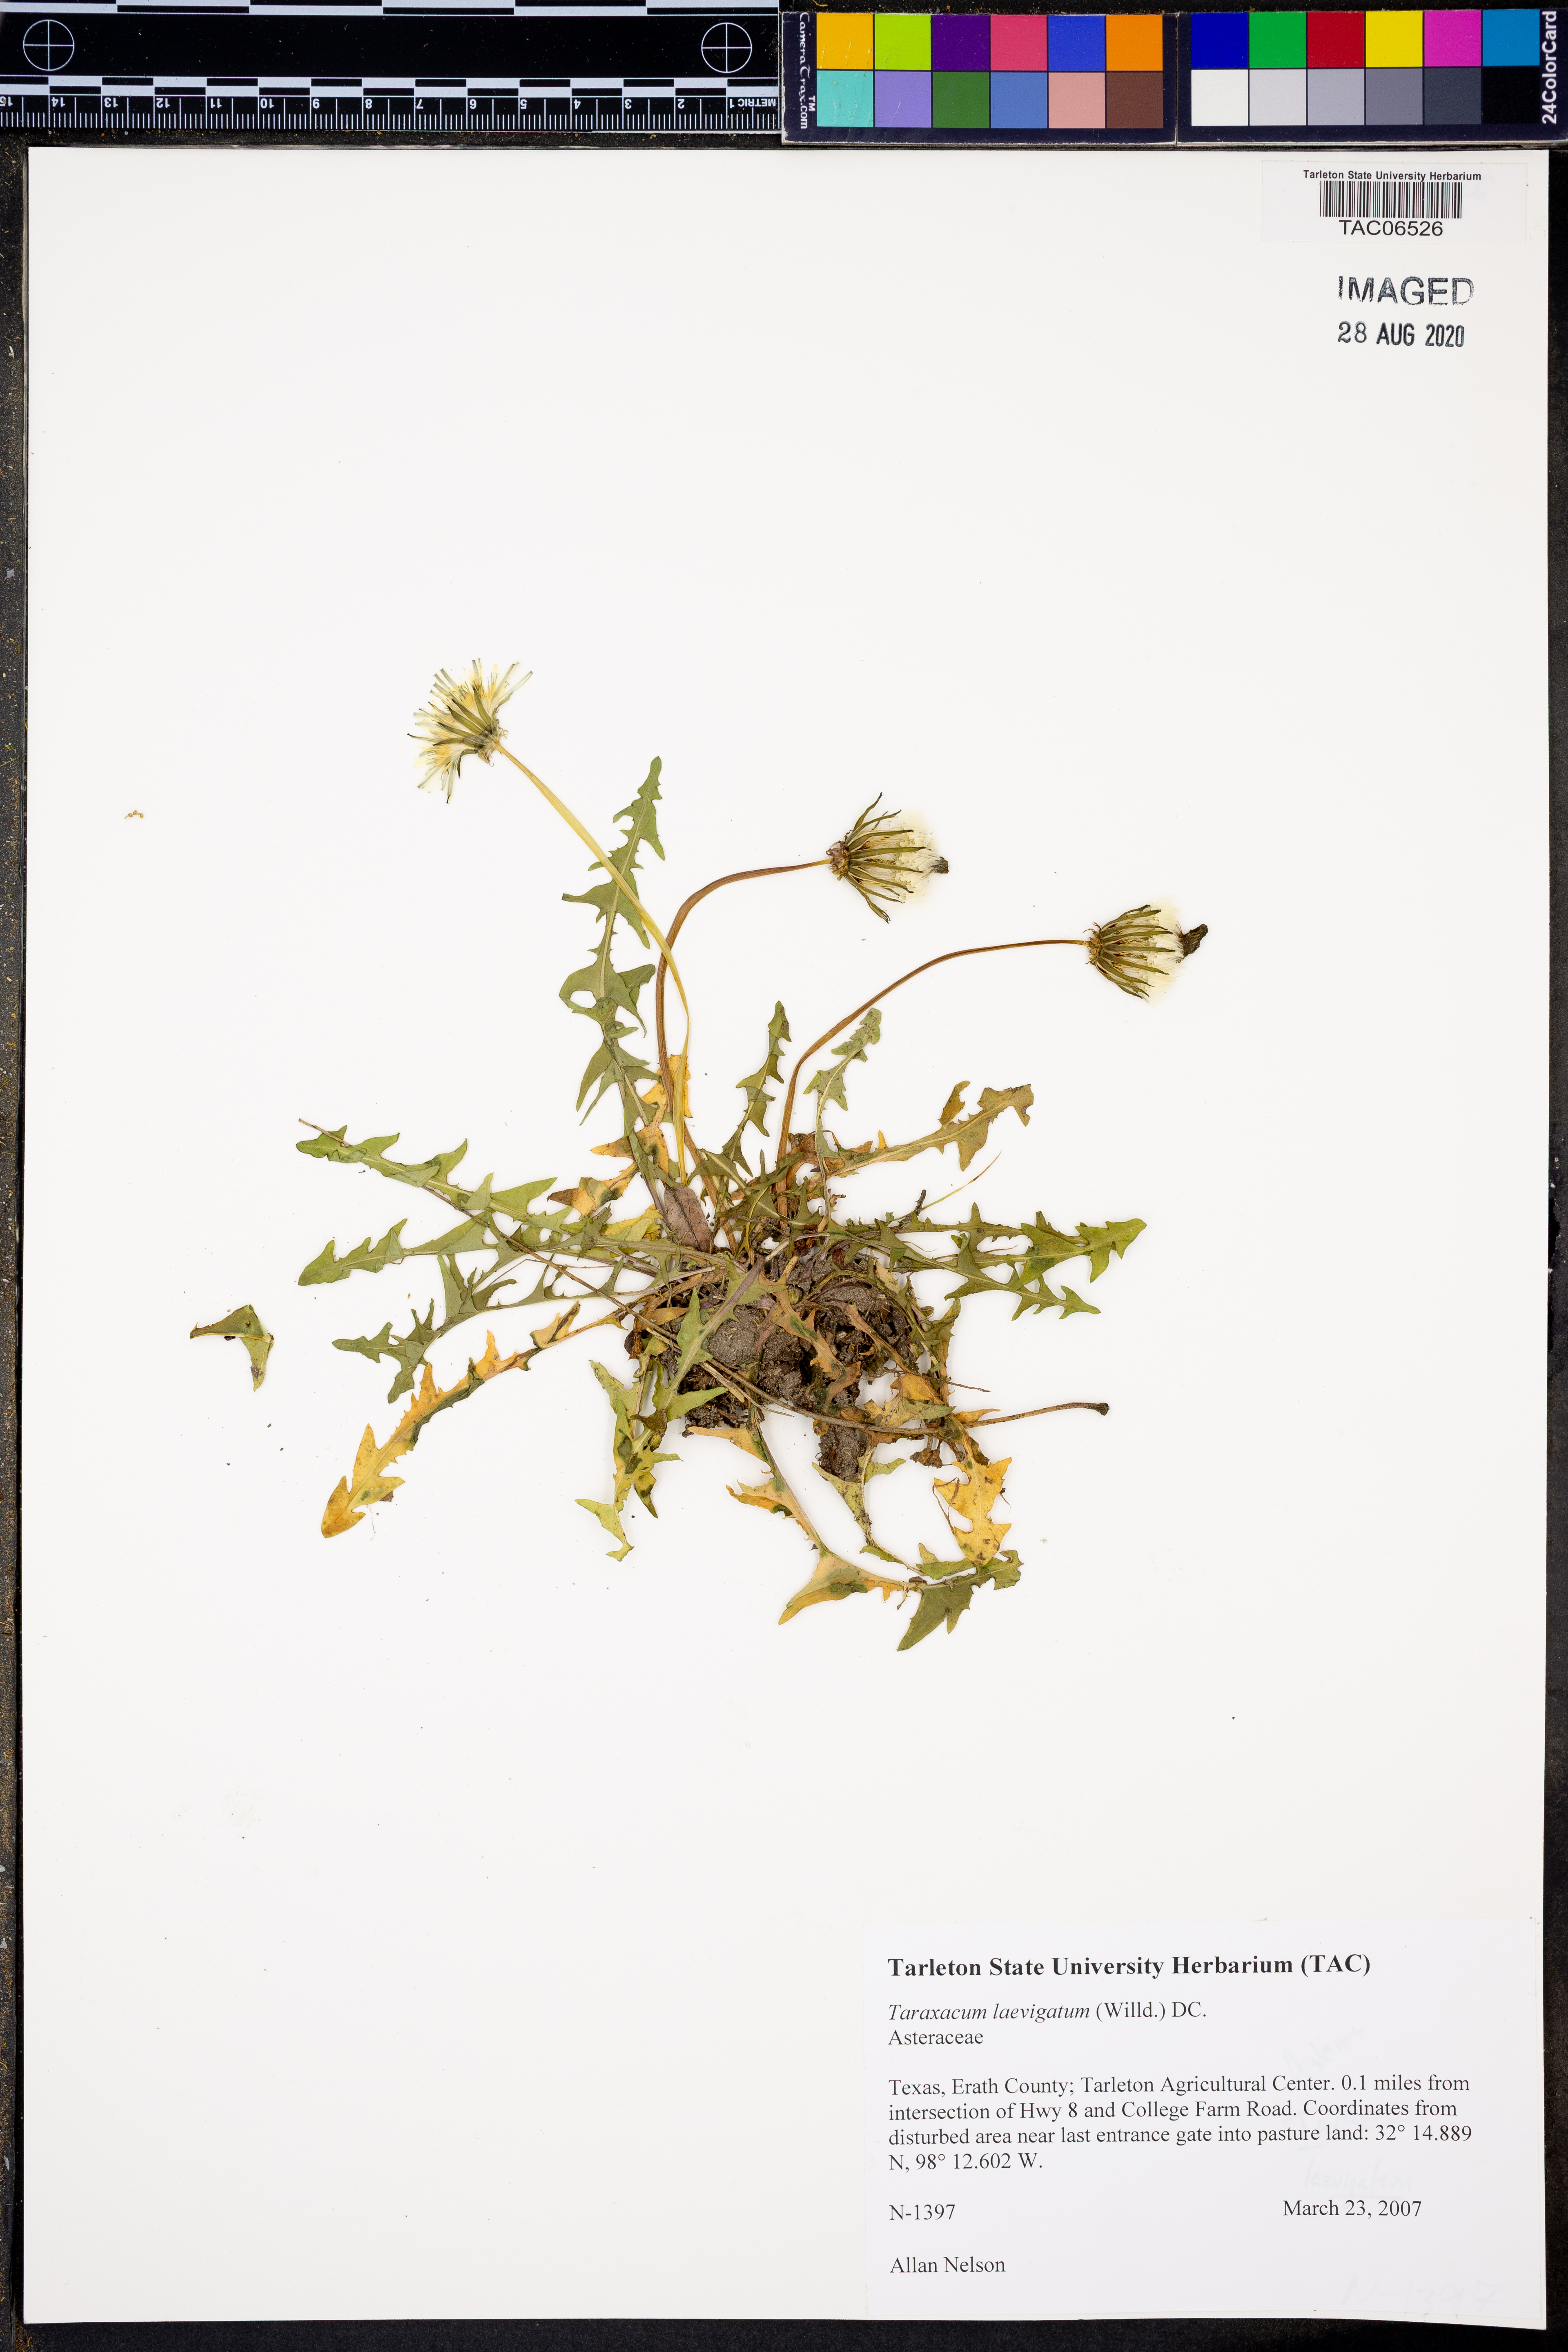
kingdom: Plantae
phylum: Tracheophyta
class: Magnoliopsida
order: Asterales
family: Asteraceae
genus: Taraxacum
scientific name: Taraxacum erythrospermum
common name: Rock dandelion
